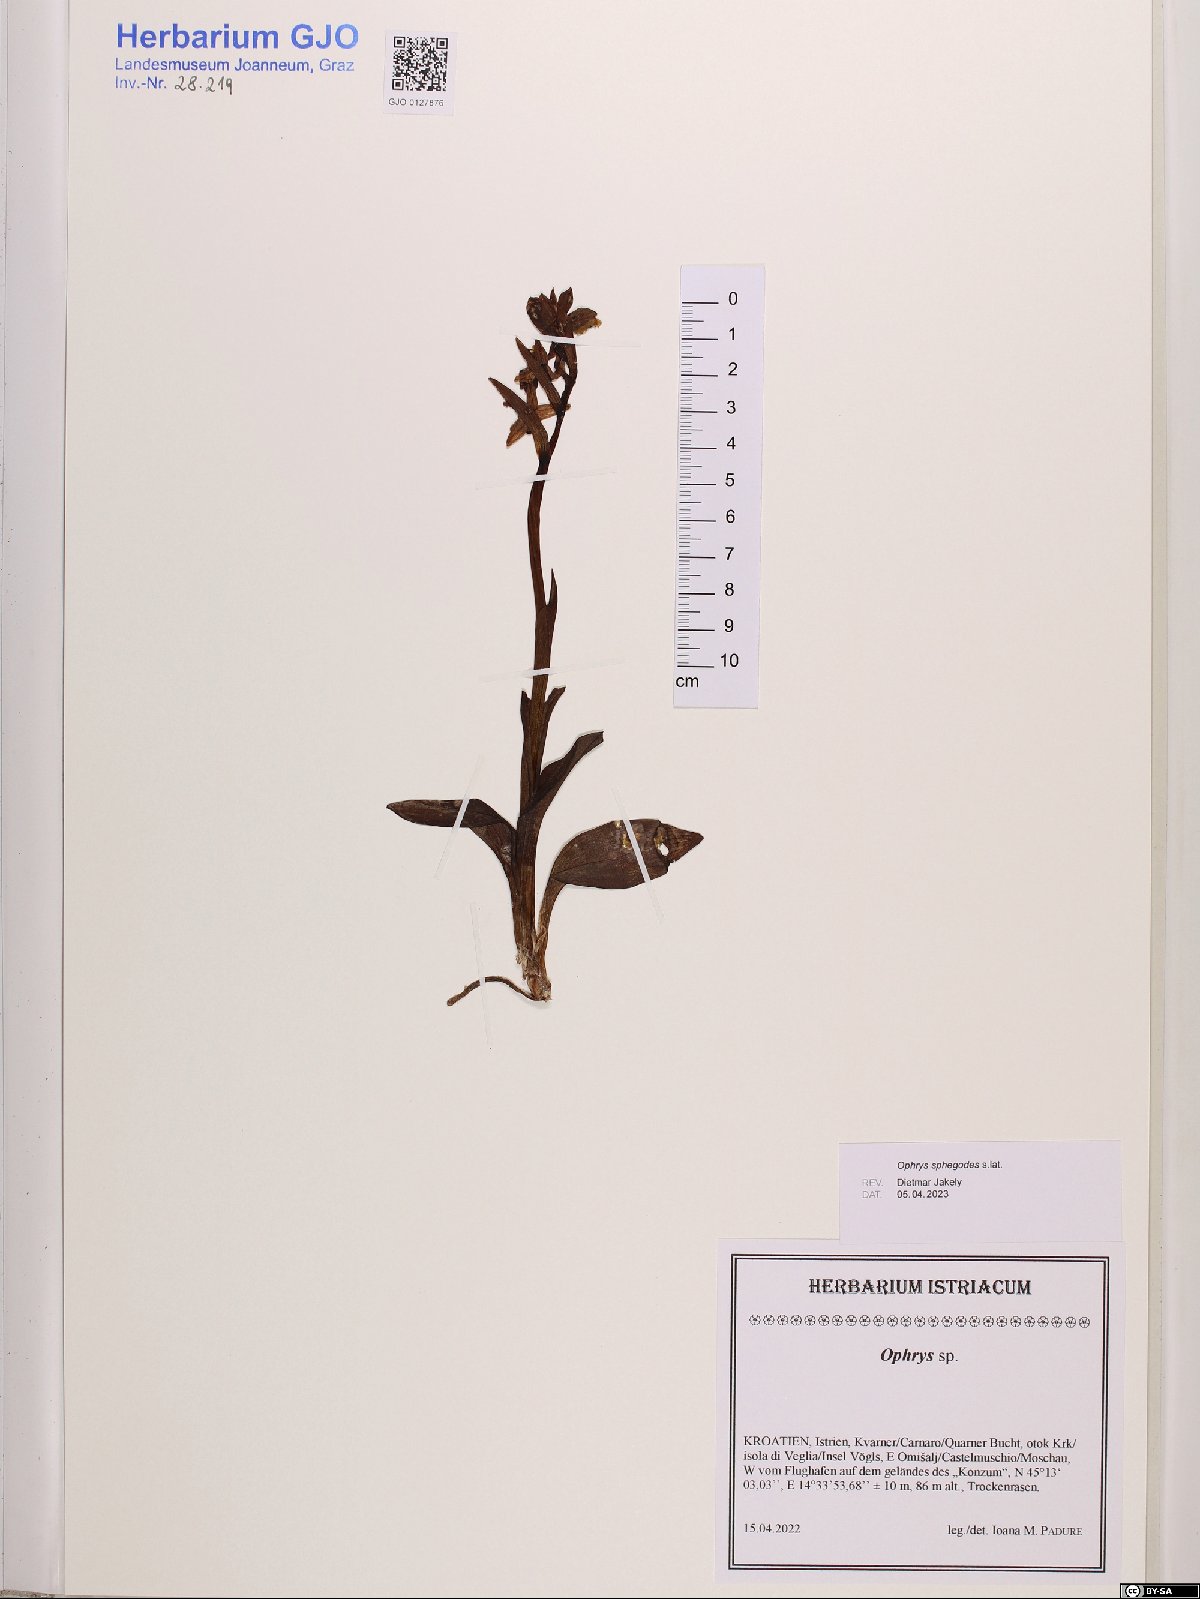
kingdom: Plantae
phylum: Tracheophyta
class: Liliopsida
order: Asparagales
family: Orchidaceae
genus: Ophrys
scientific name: Ophrys sphegodes
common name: Early spider-orchid
